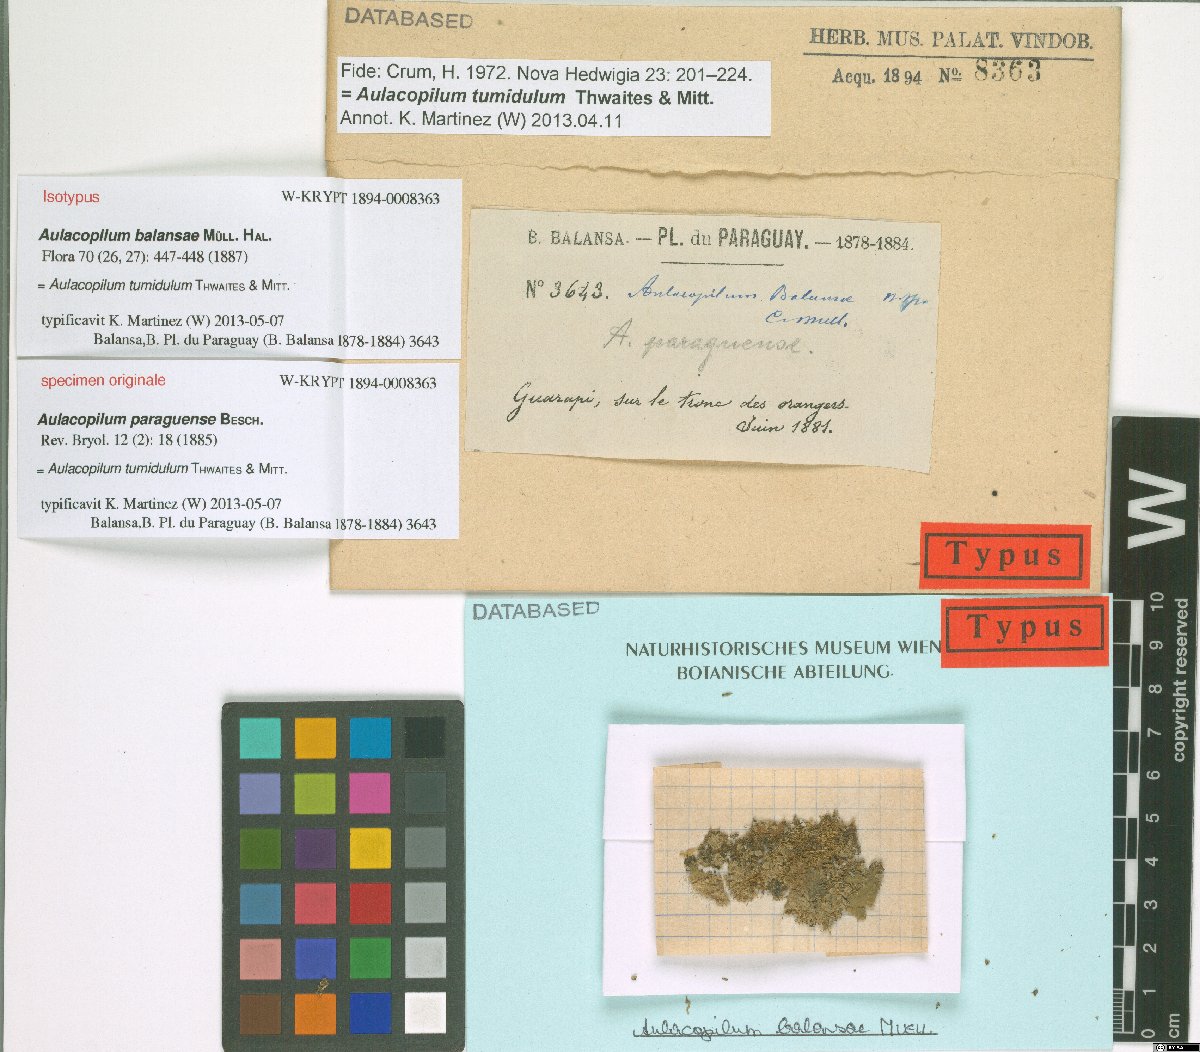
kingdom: Plantae
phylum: Bryophyta
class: Bryopsida
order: Dicranales
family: Erpodiaceae
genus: Aulacopilum
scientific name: Aulacopilum glaucum
